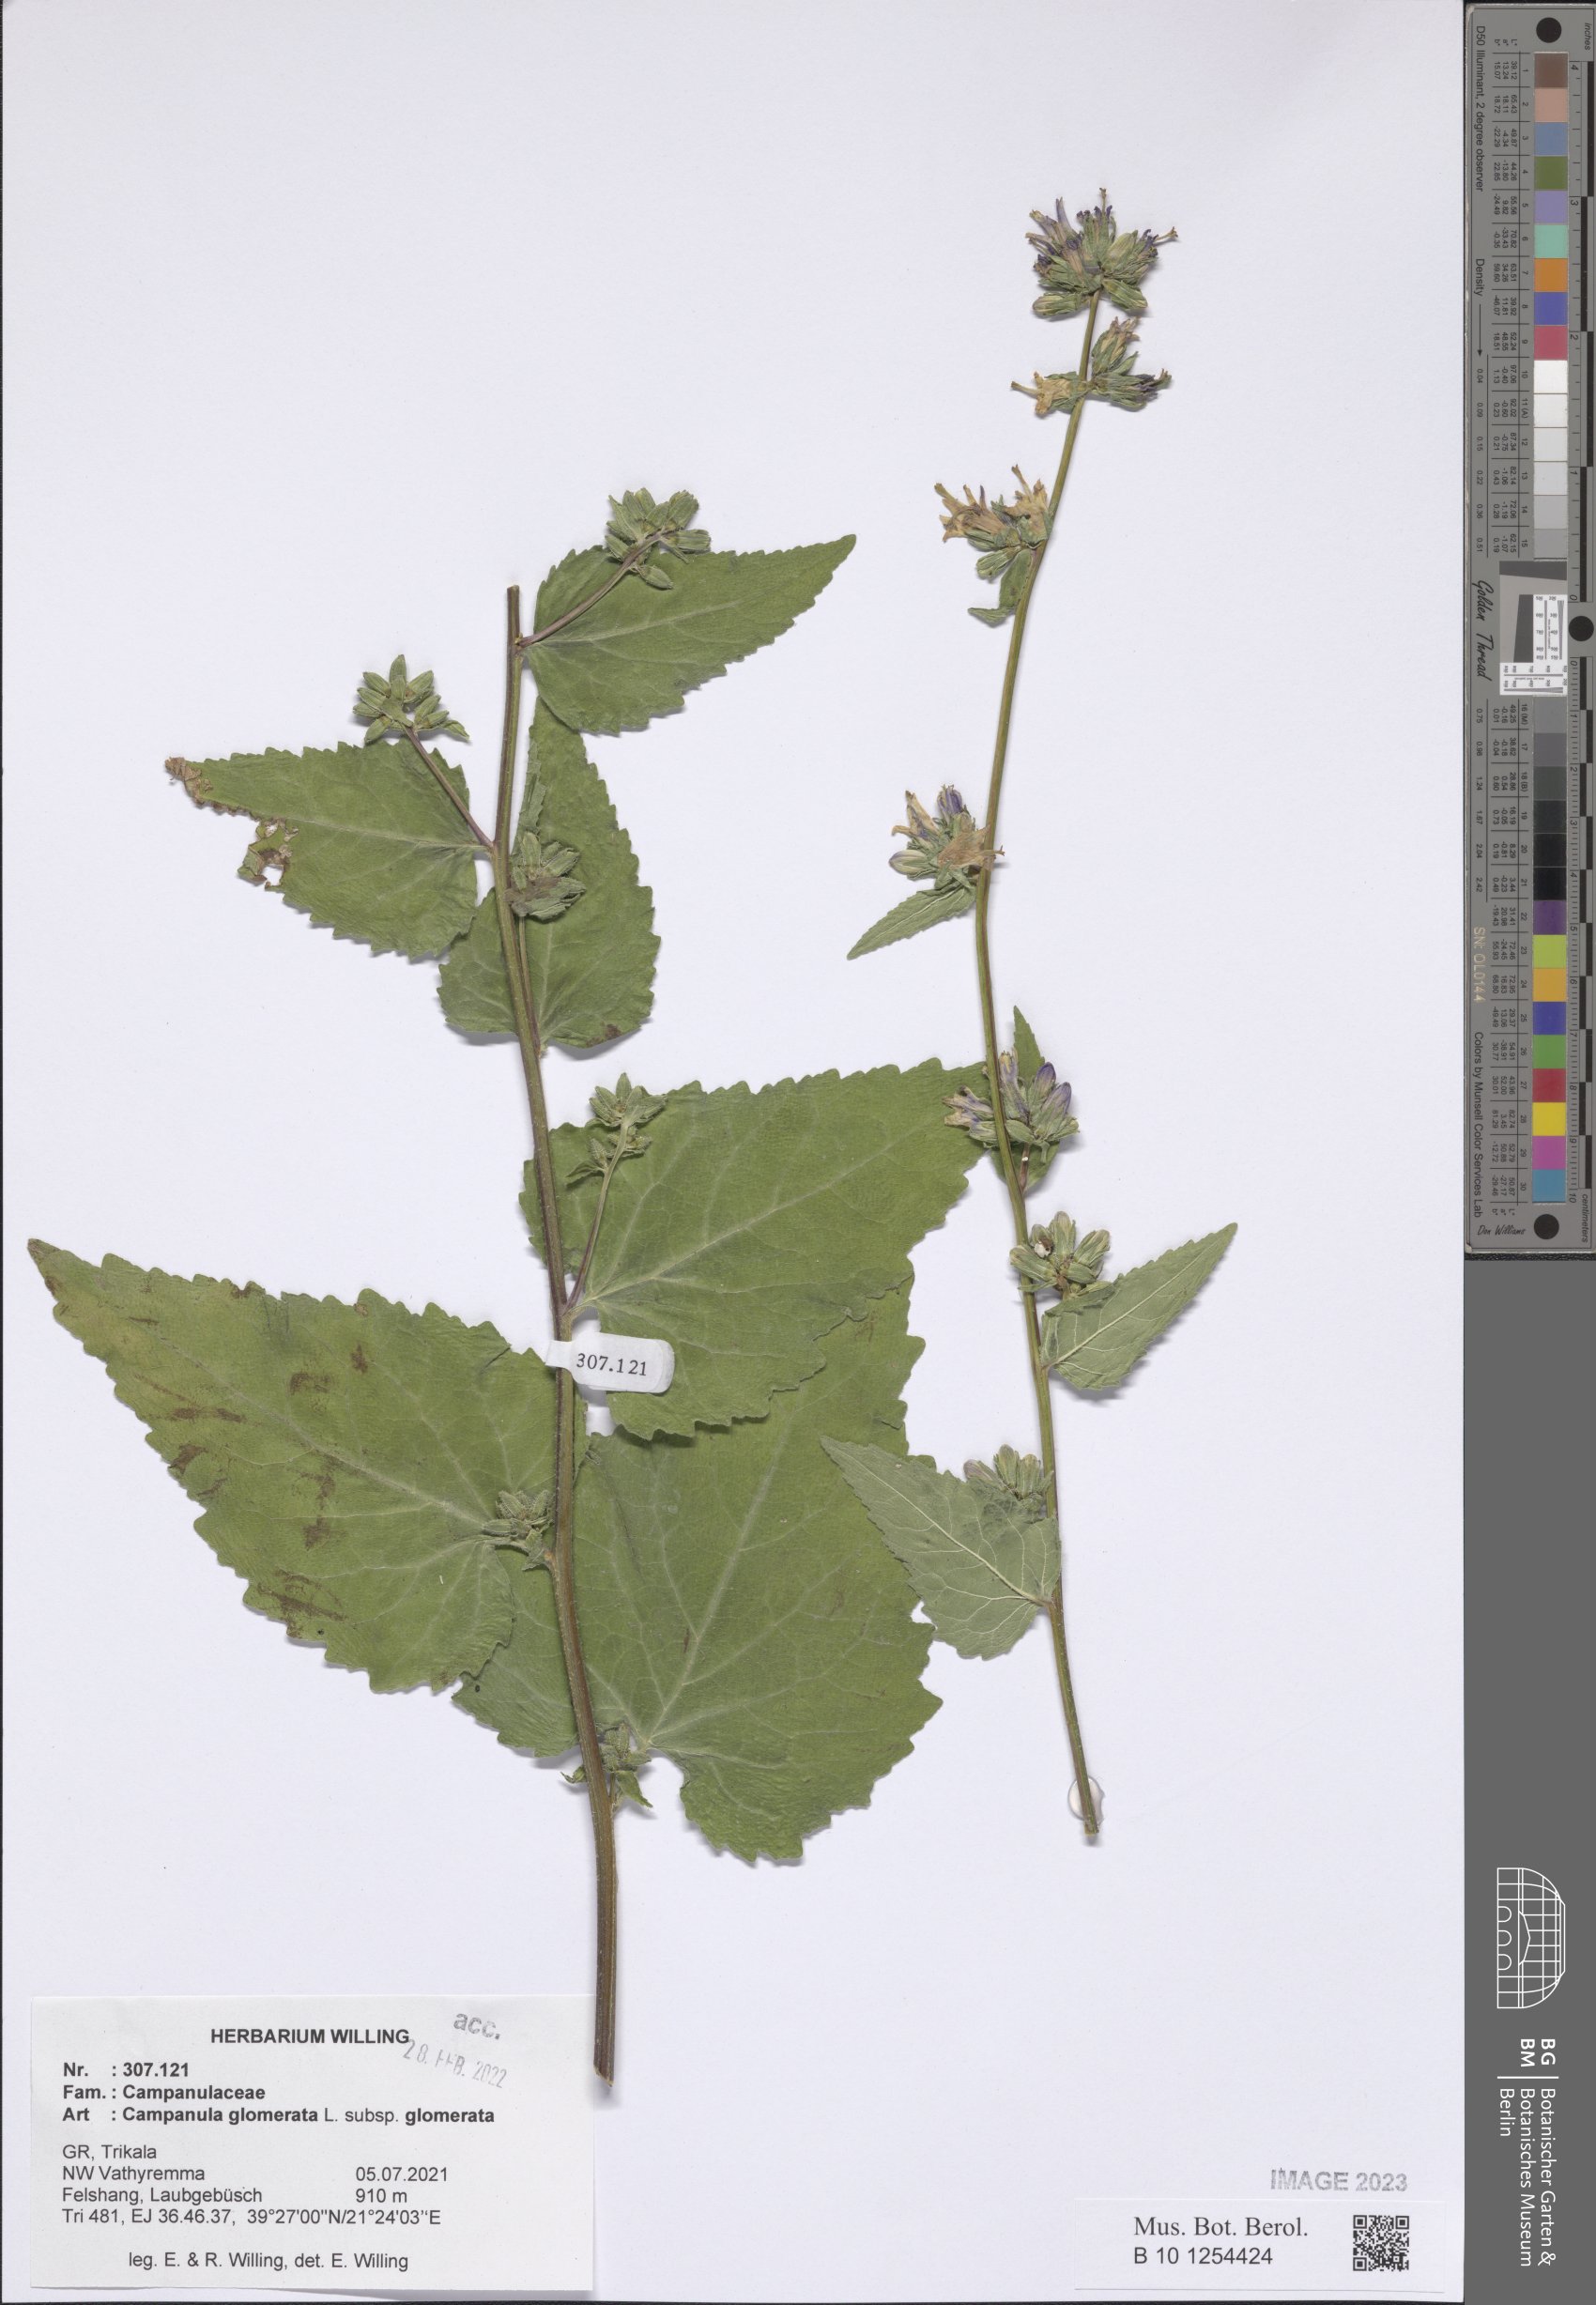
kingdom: Plantae
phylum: Tracheophyta
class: Magnoliopsida
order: Asterales
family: Campanulaceae
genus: Campanula
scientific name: Campanula glomerata
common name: Clustered bellflower
